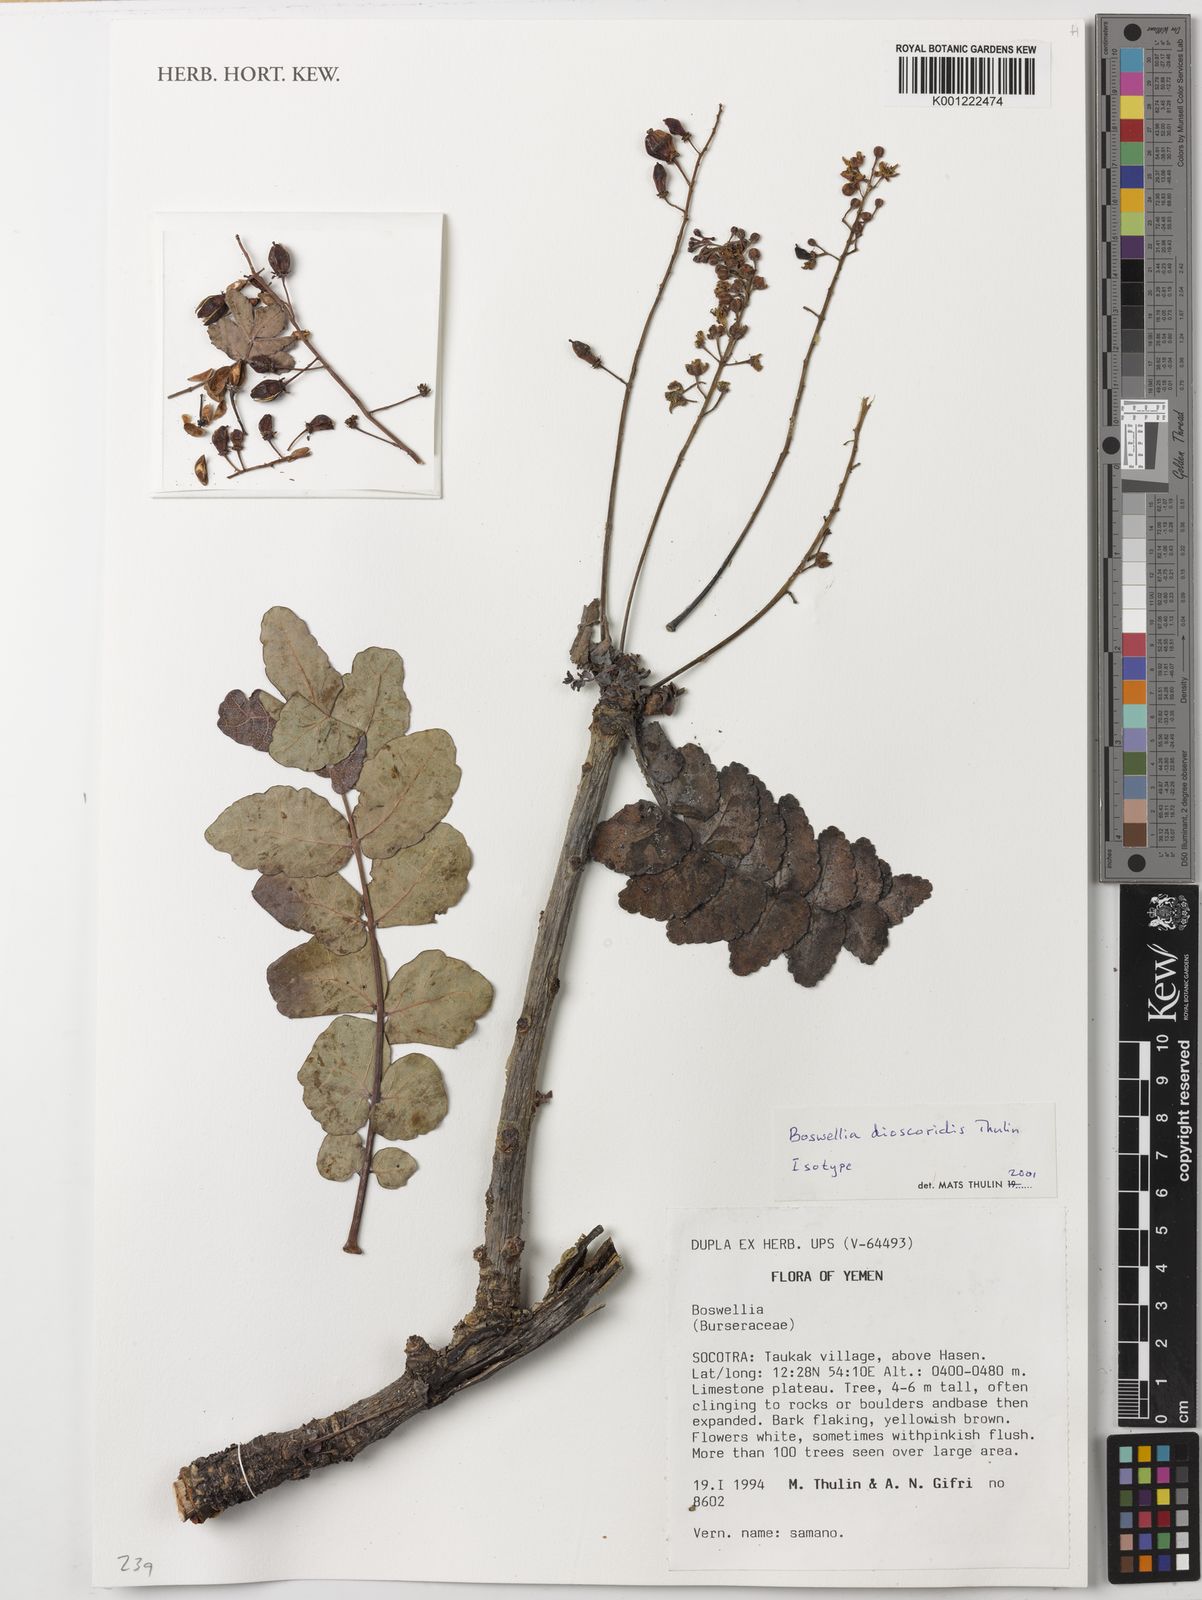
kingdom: Plantae
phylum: Tracheophyta
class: Magnoliopsida
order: Sapindales
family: Burseraceae
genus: Boswellia
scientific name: Boswellia dioscoridis
